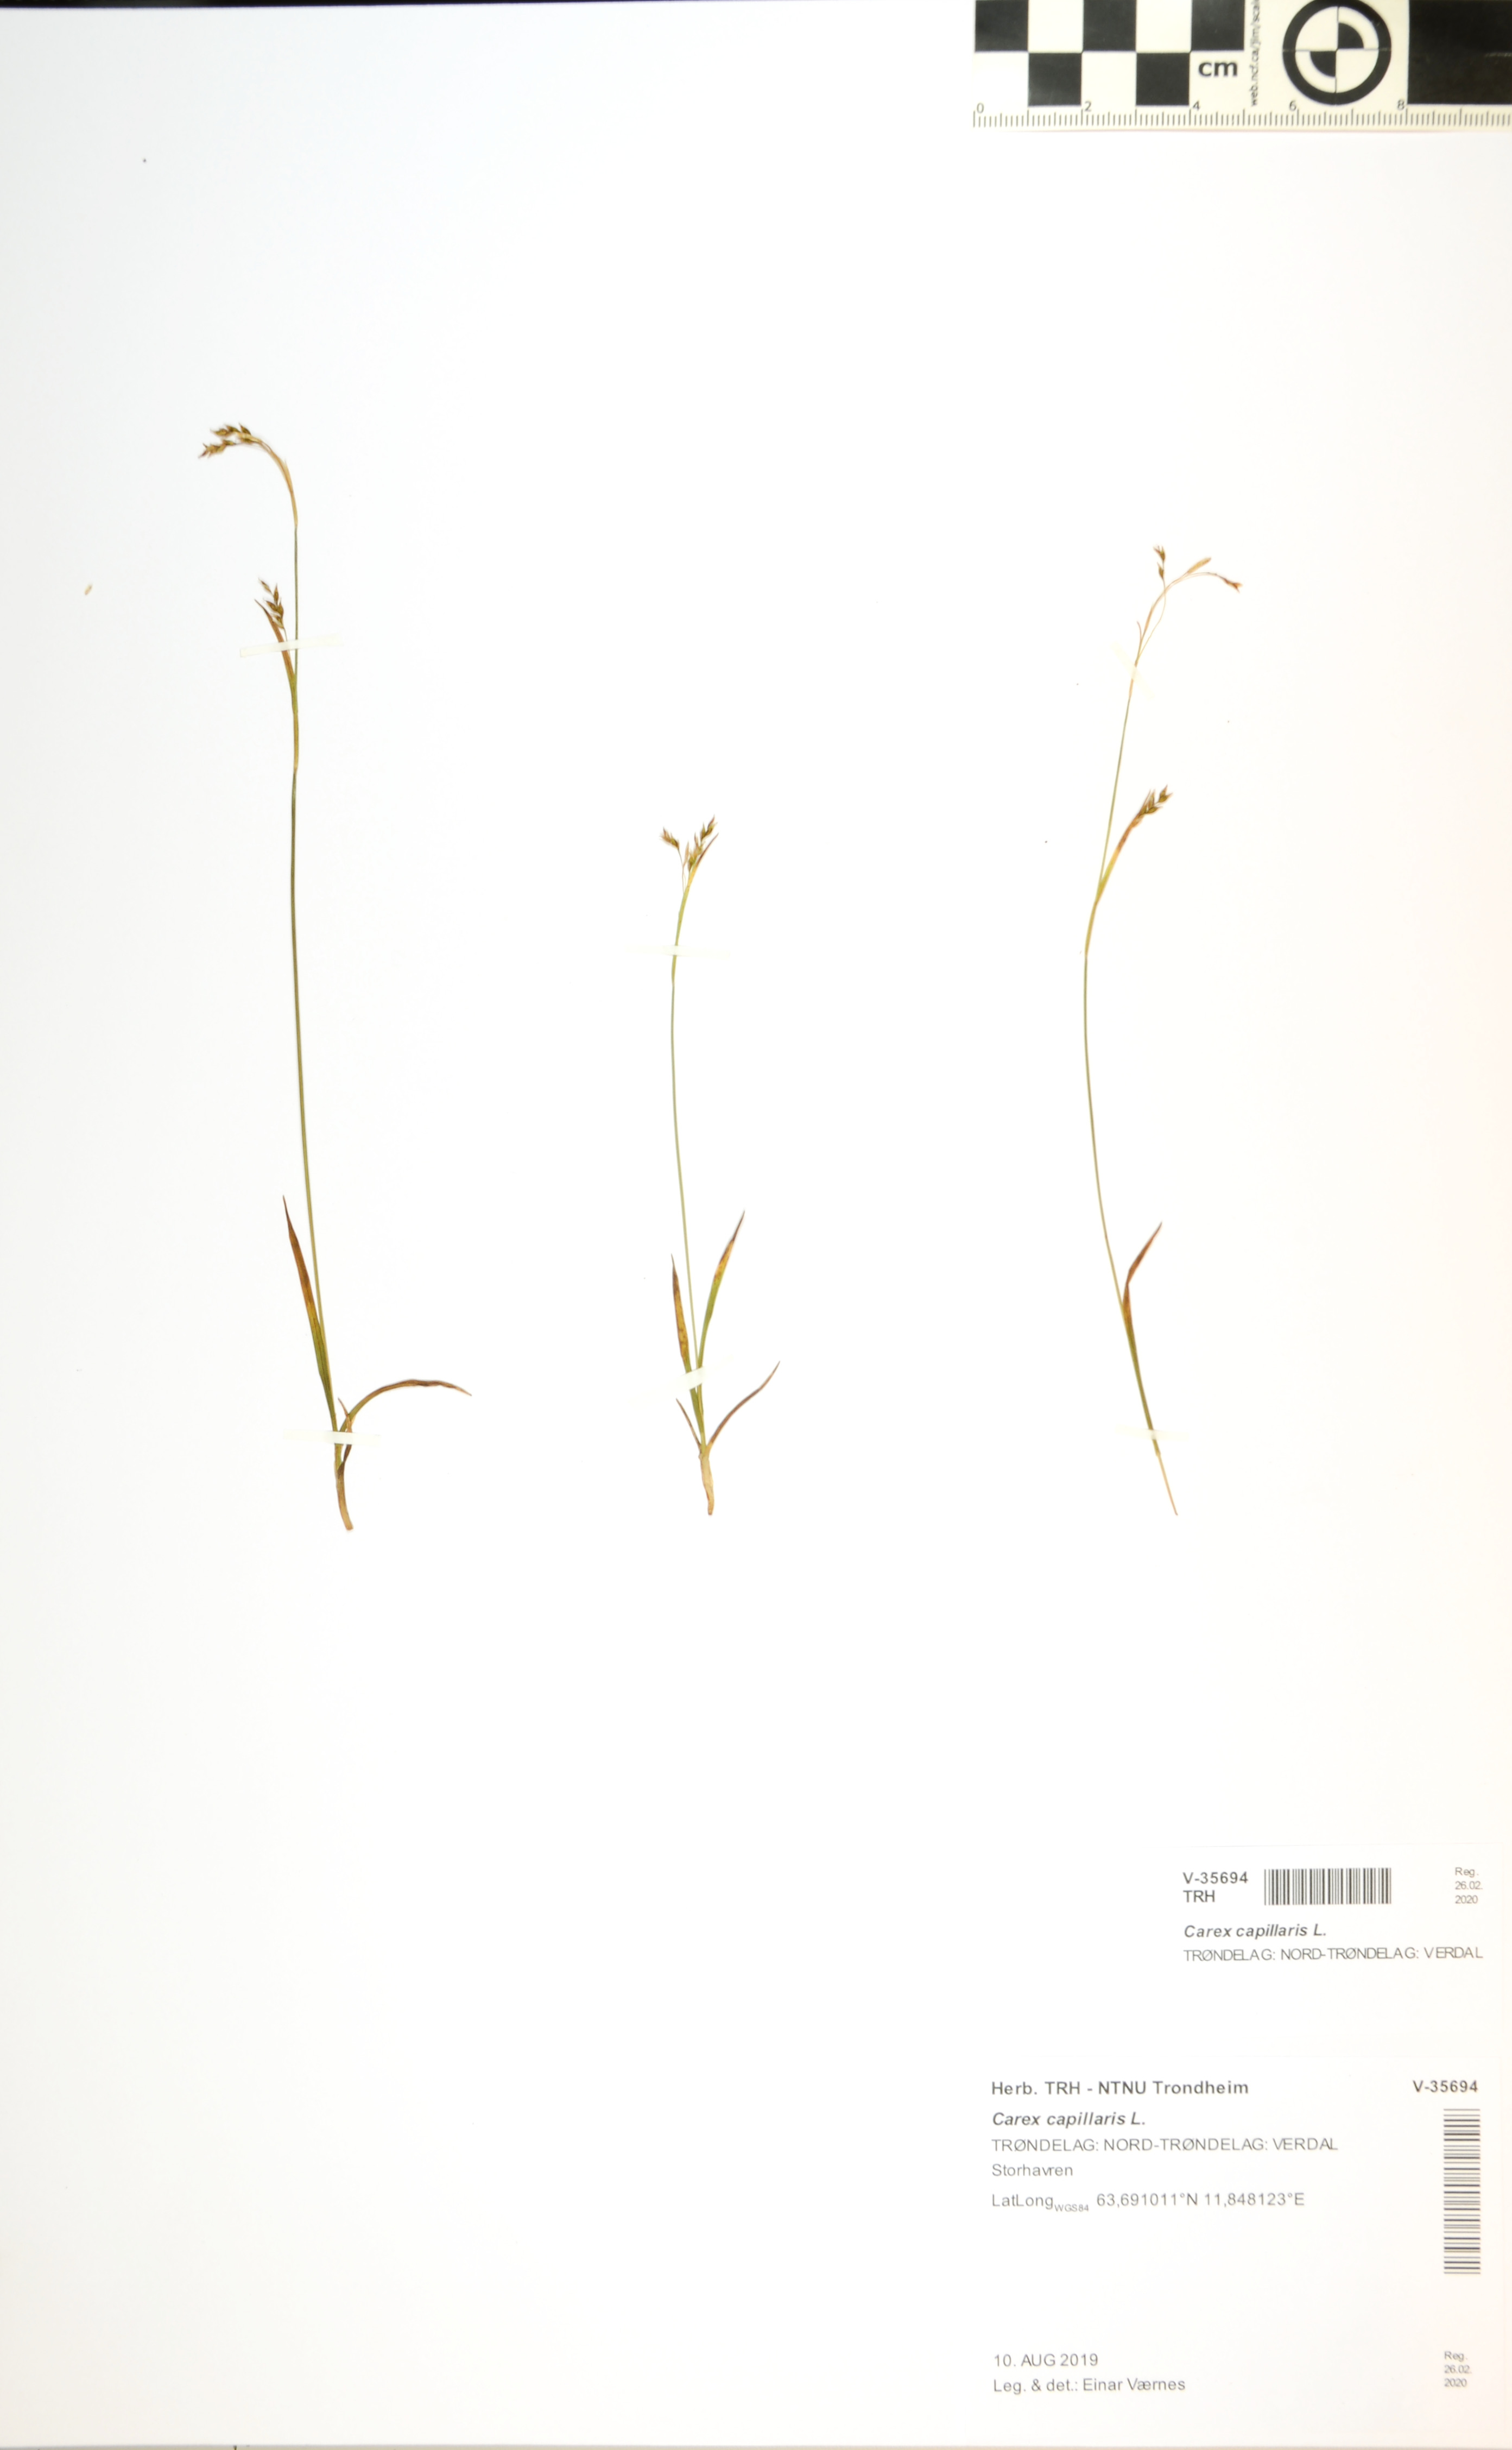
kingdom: Plantae
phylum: Tracheophyta
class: Liliopsida
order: Poales
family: Cyperaceae
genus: Carex
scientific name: Carex capillaris
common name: Hair sedge
